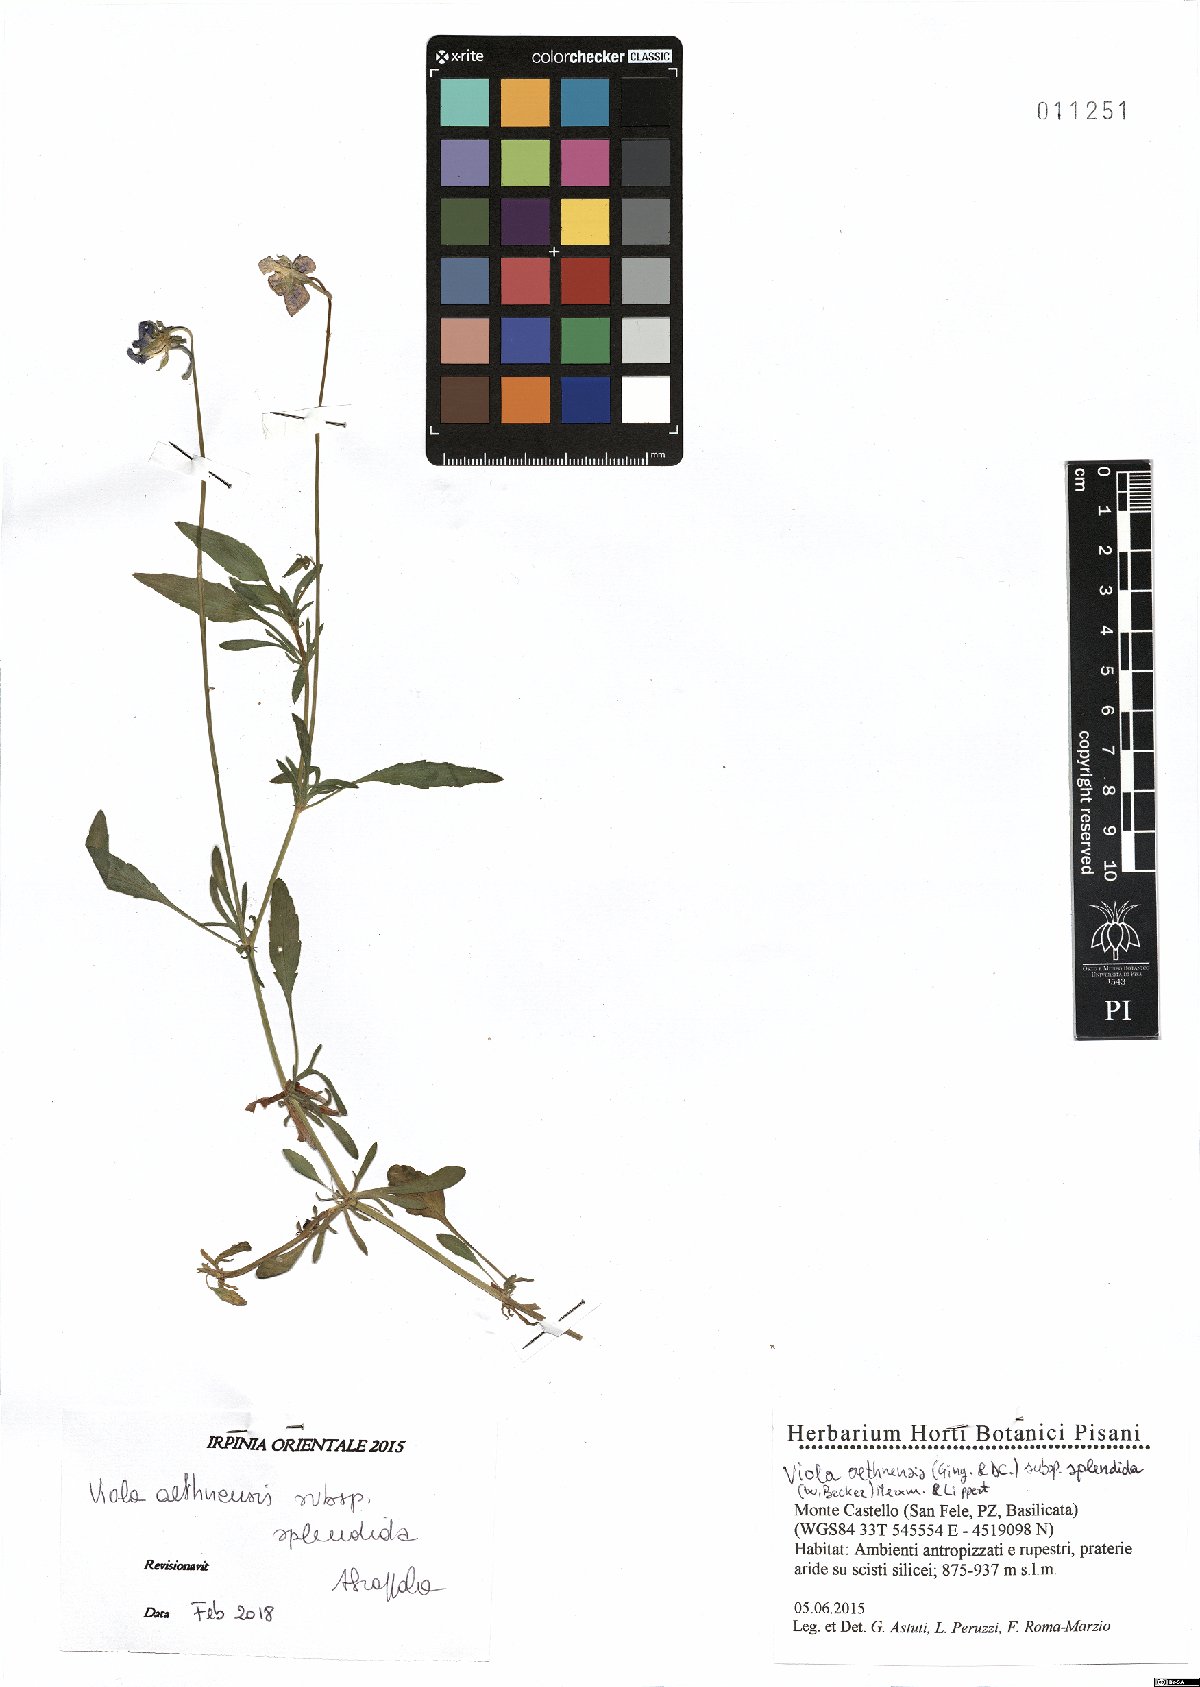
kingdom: Plantae
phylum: Tracheophyta
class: Magnoliopsida
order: Malpighiales
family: Violaceae
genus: Viola
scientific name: Viola aethnensis
